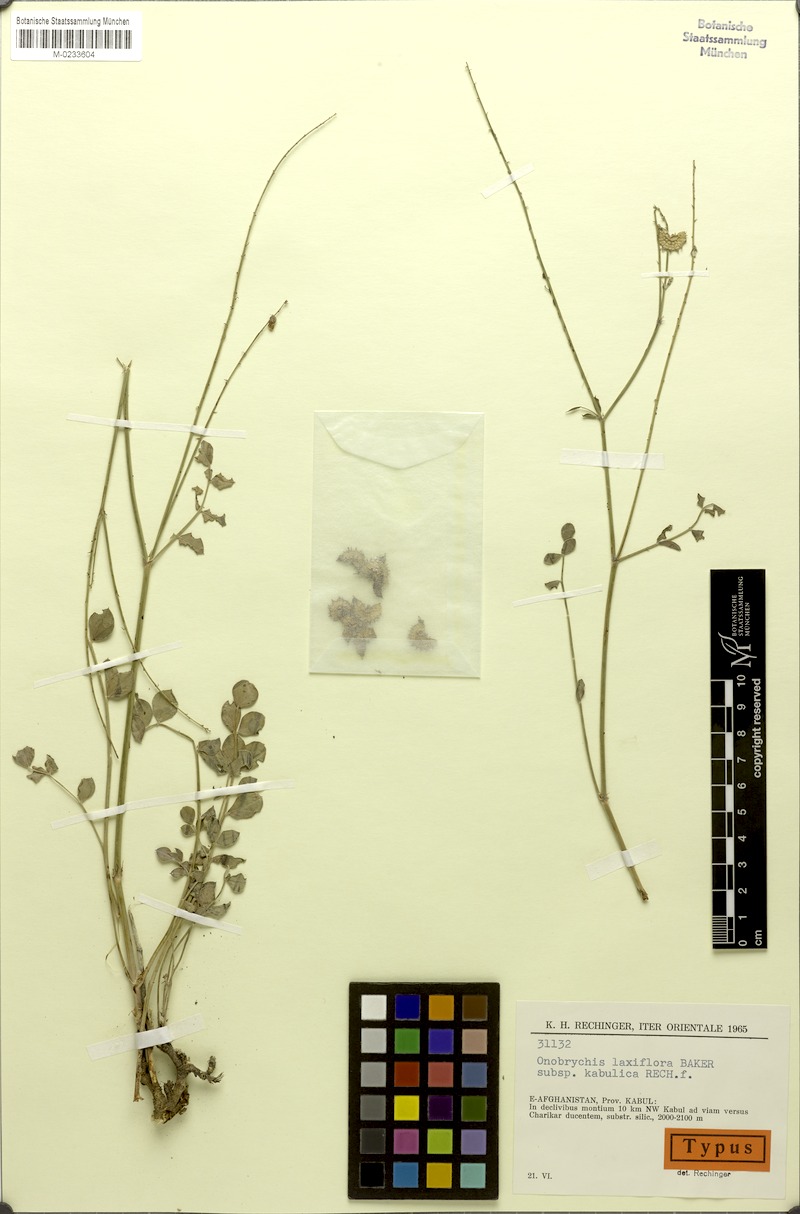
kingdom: Plantae
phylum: Tracheophyta
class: Magnoliopsida
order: Fabales
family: Fabaceae
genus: Onobrychis
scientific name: Onobrychis laxiflora
